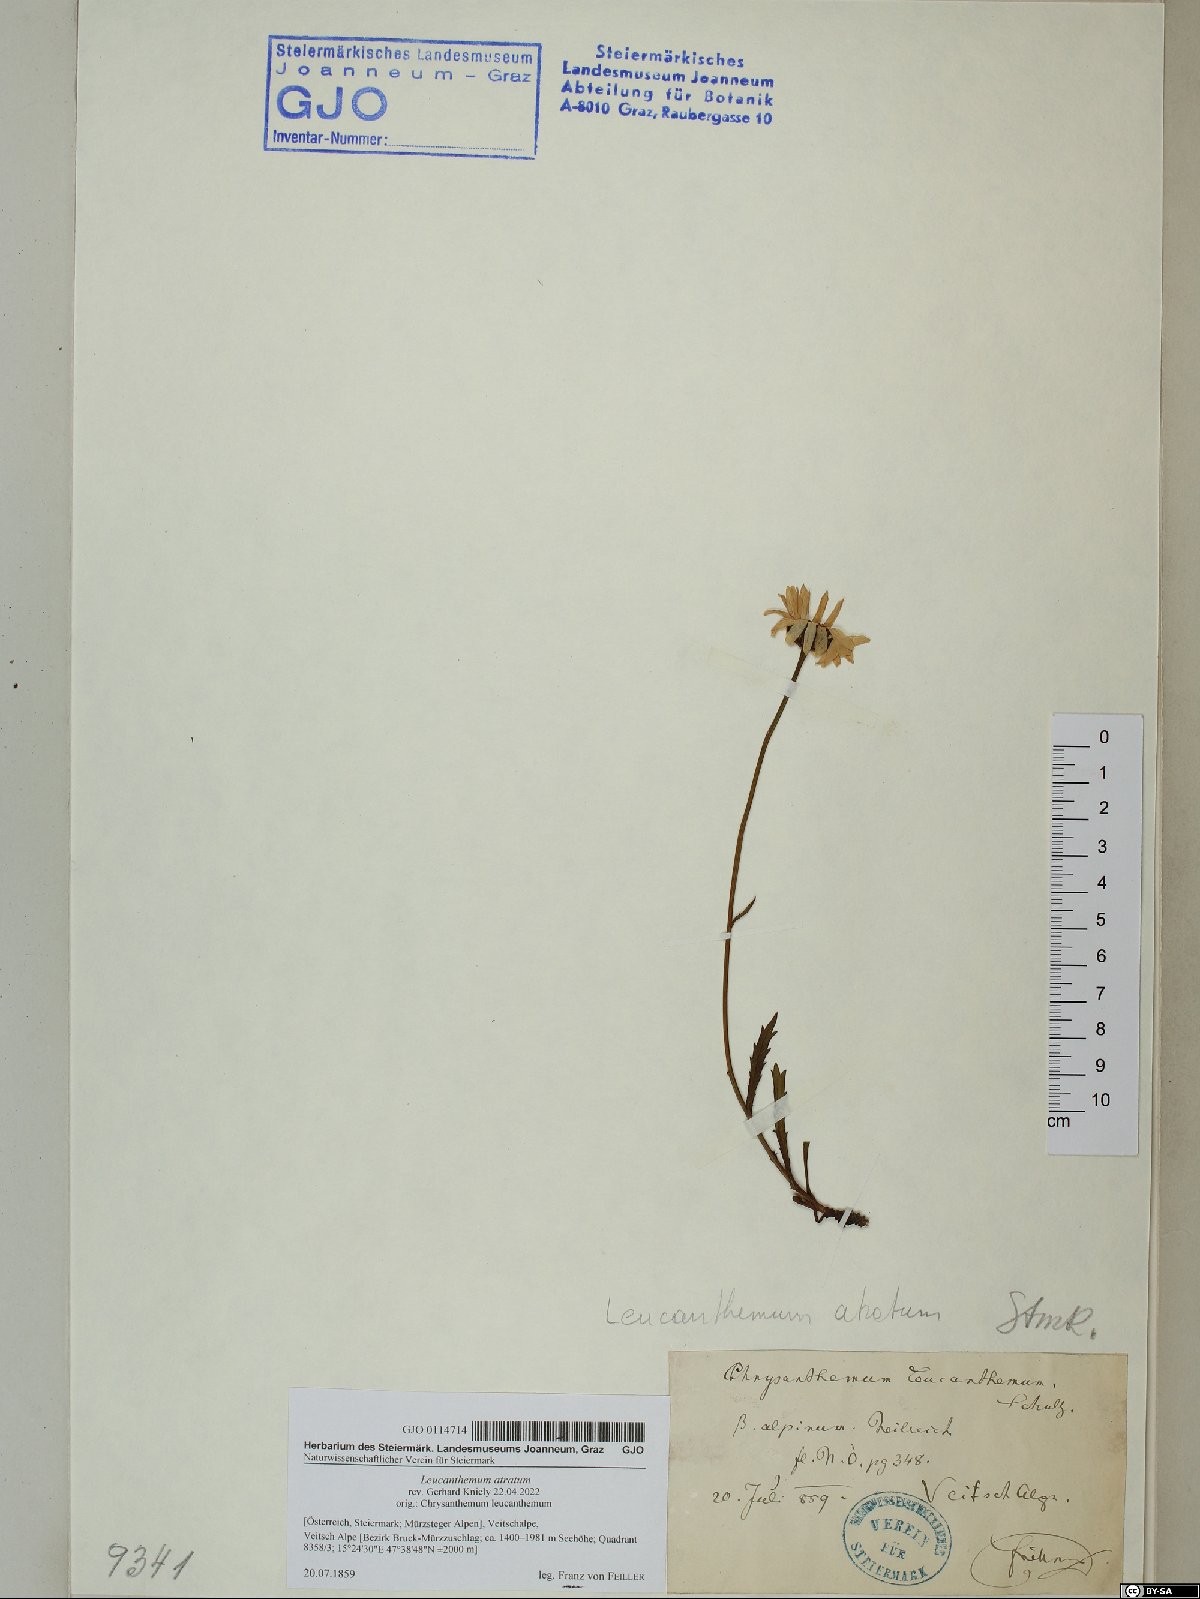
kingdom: Plantae
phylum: Tracheophyta
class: Magnoliopsida
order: Asterales
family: Asteraceae
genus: Leucanthemum
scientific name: Leucanthemum atratum
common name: Saw-leaved moon-daisy
